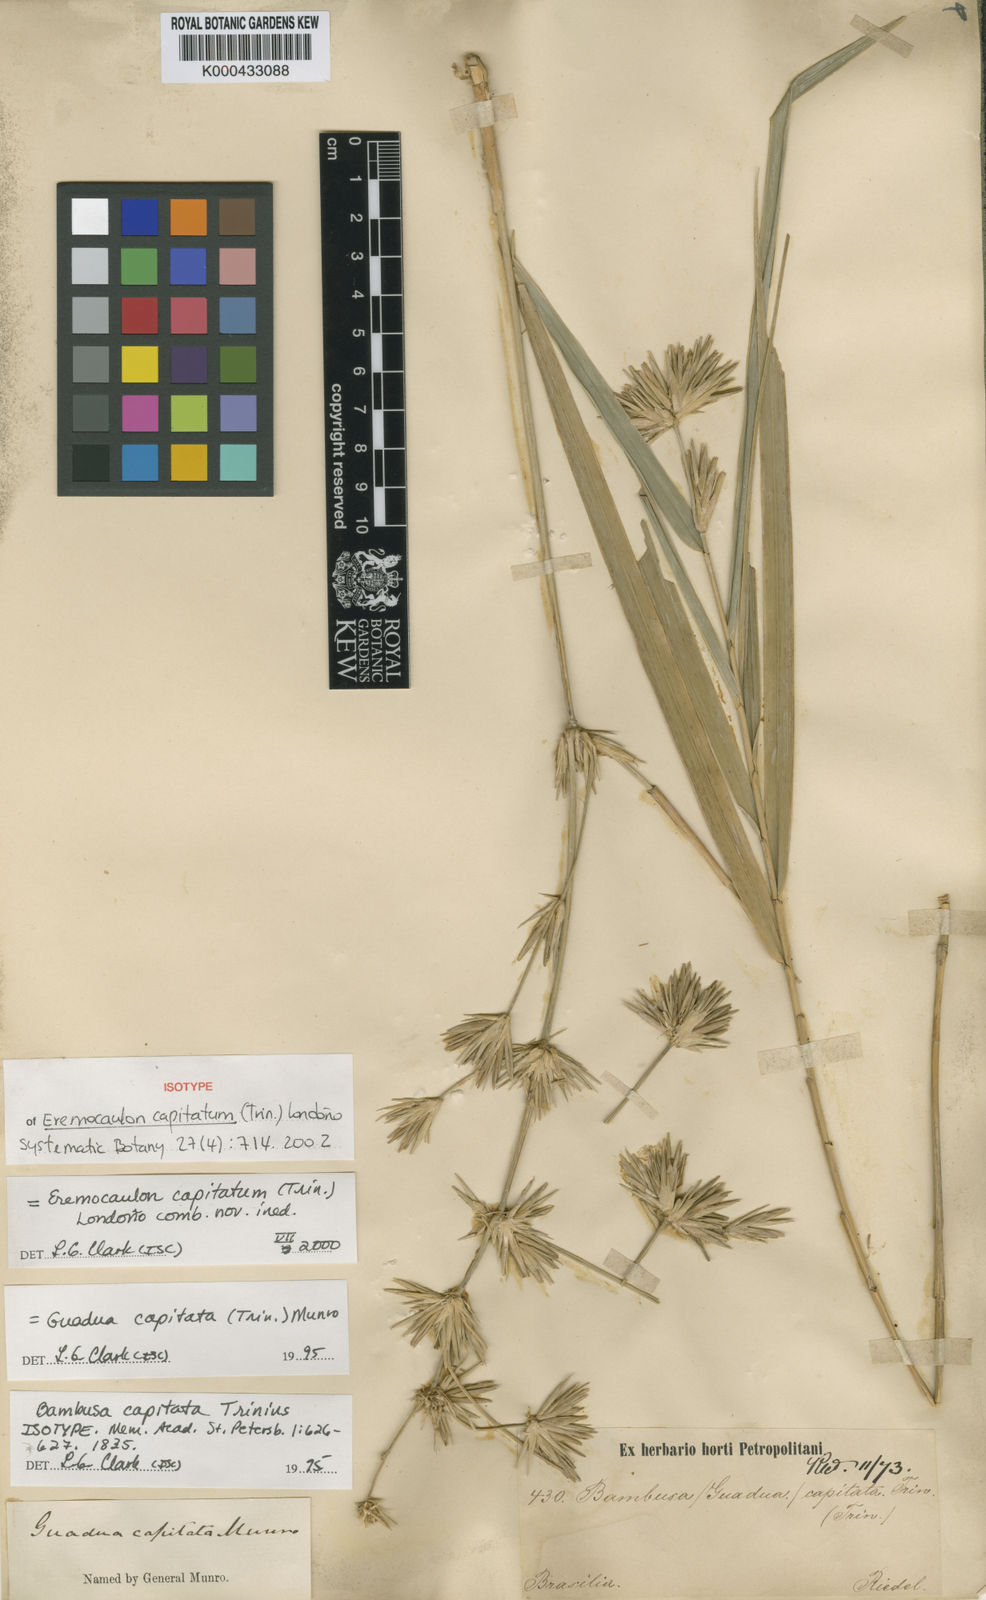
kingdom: Plantae
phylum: Tracheophyta
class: Liliopsida
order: Poales
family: Poaceae
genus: Eremocaulon
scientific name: Eremocaulon
